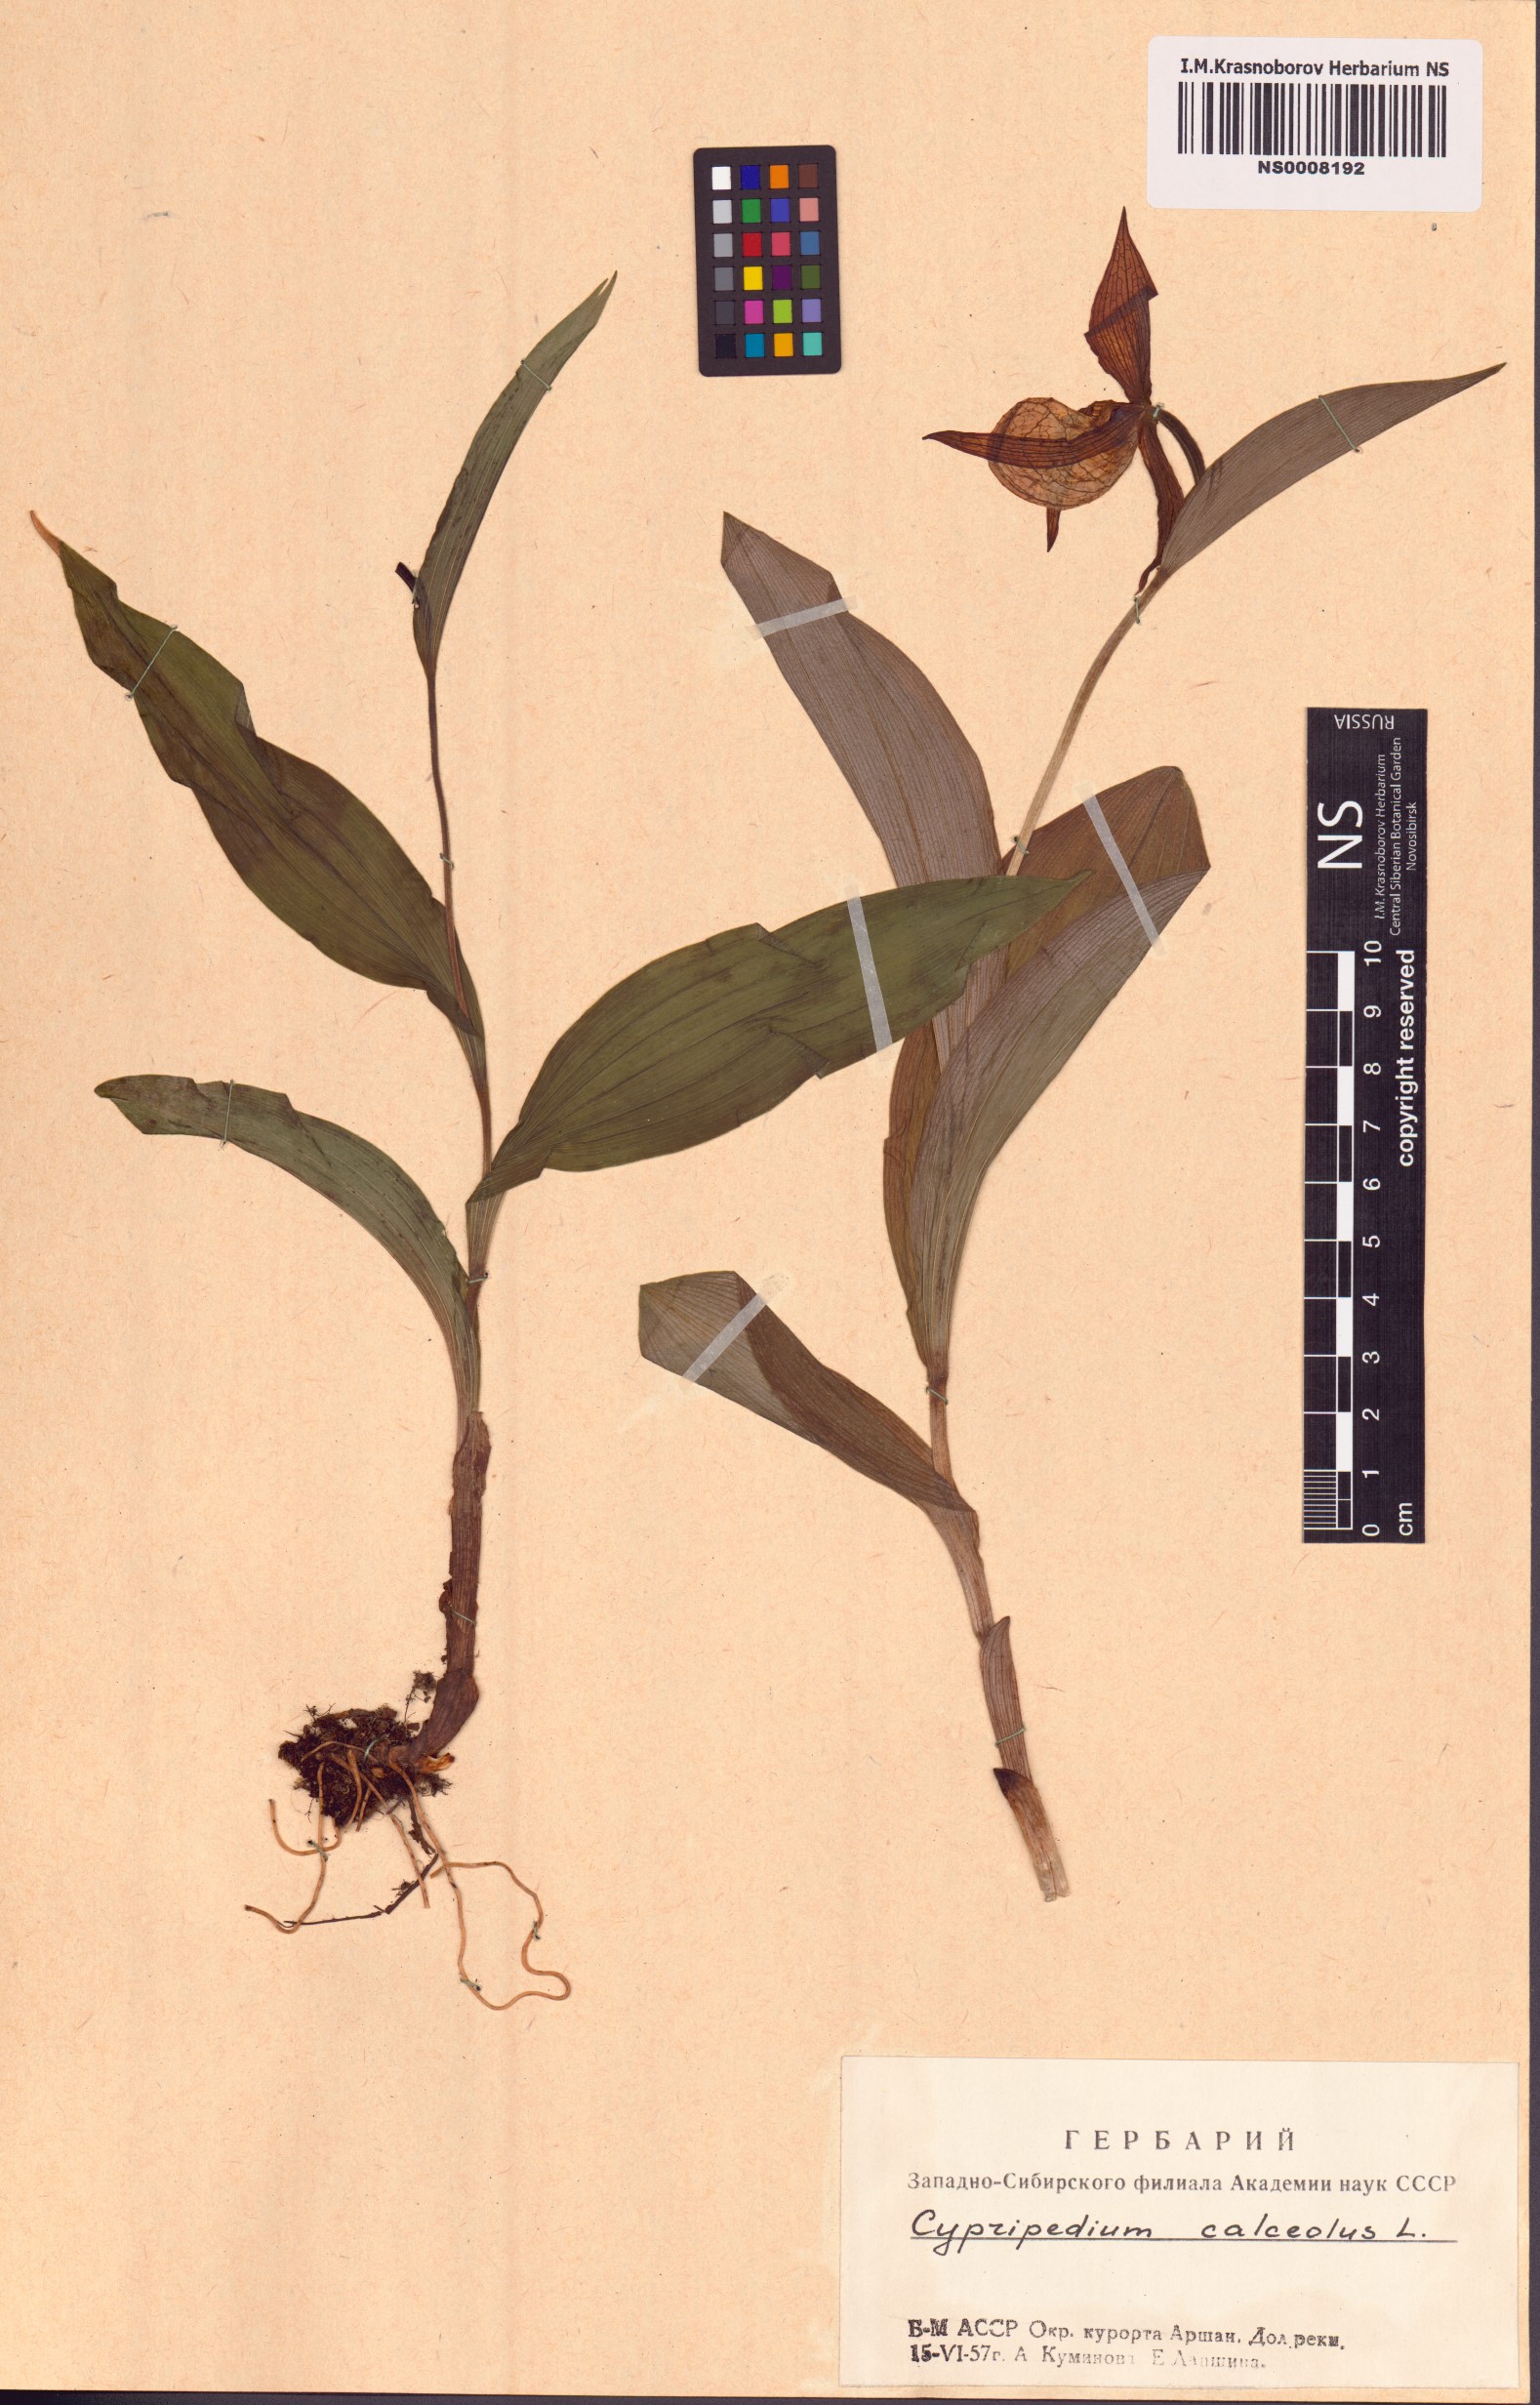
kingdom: Plantae
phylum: Tracheophyta
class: Liliopsida
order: Asparagales
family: Orchidaceae
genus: Cypripedium
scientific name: Cypripedium calceolus
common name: Lady's-slipper
